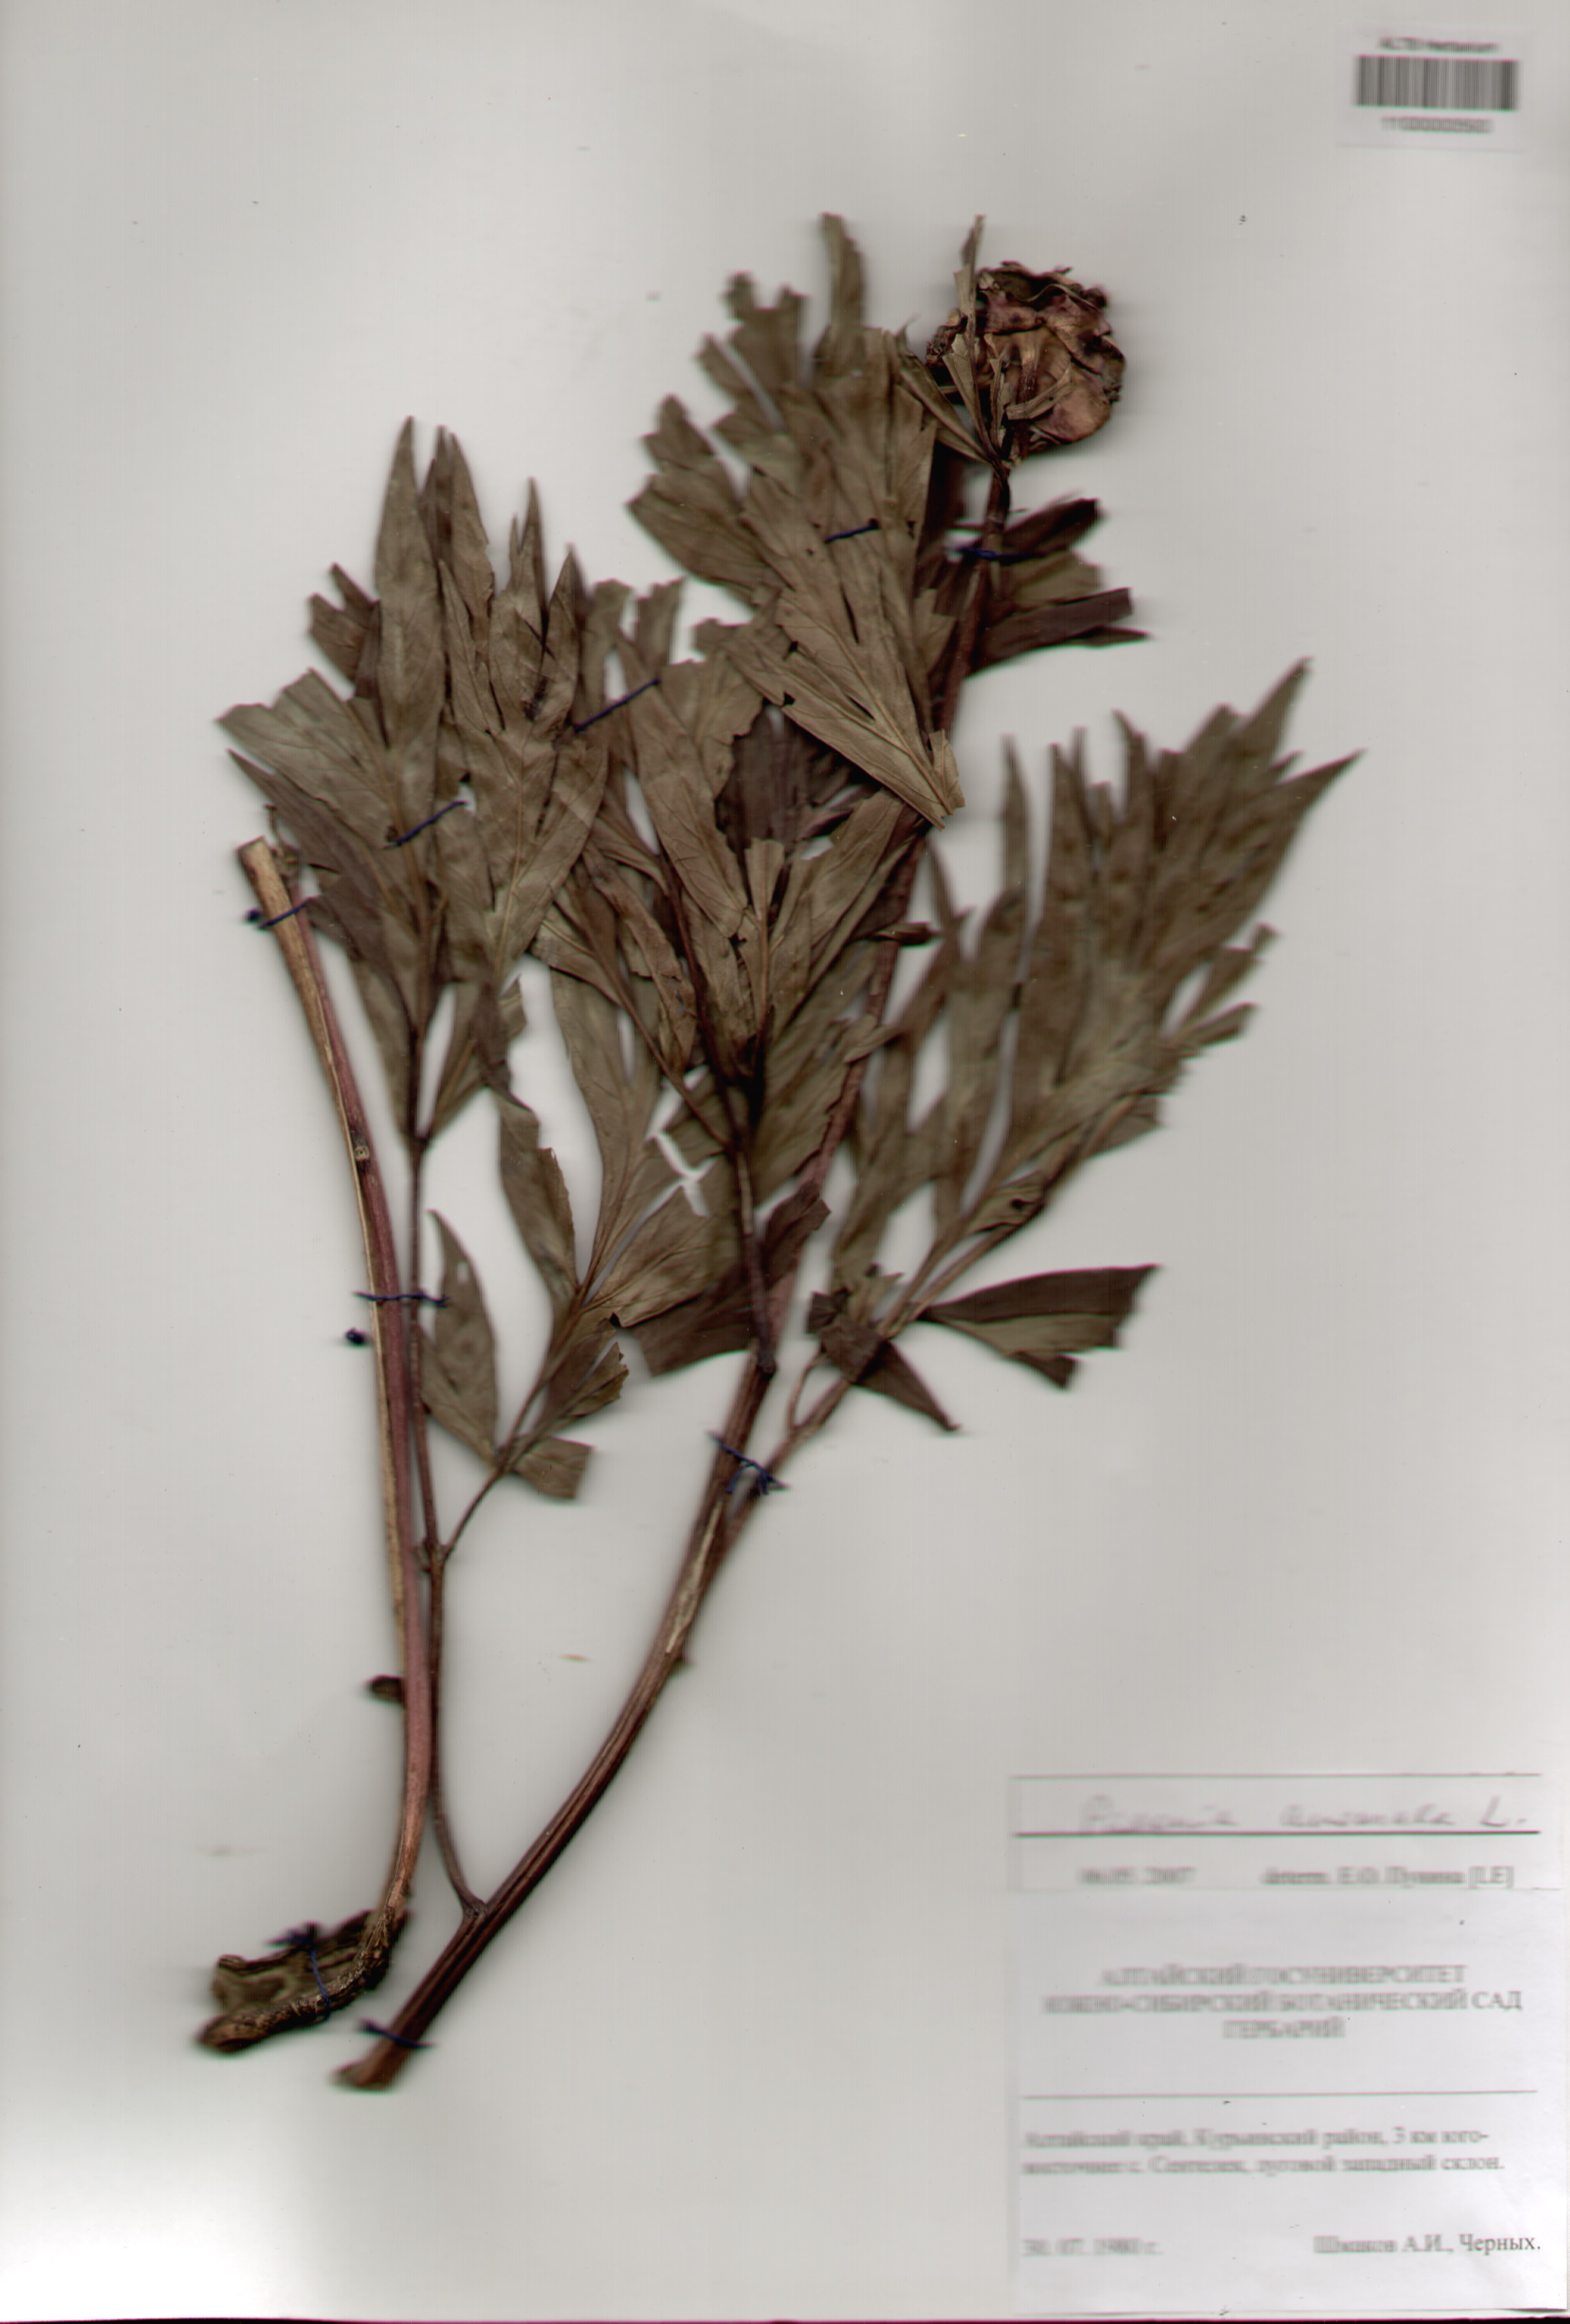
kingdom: Plantae
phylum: Tracheophyta
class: Magnoliopsida
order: Saxifragales
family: Paeoniaceae
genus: Paeonia
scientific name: Paeonia anomala
